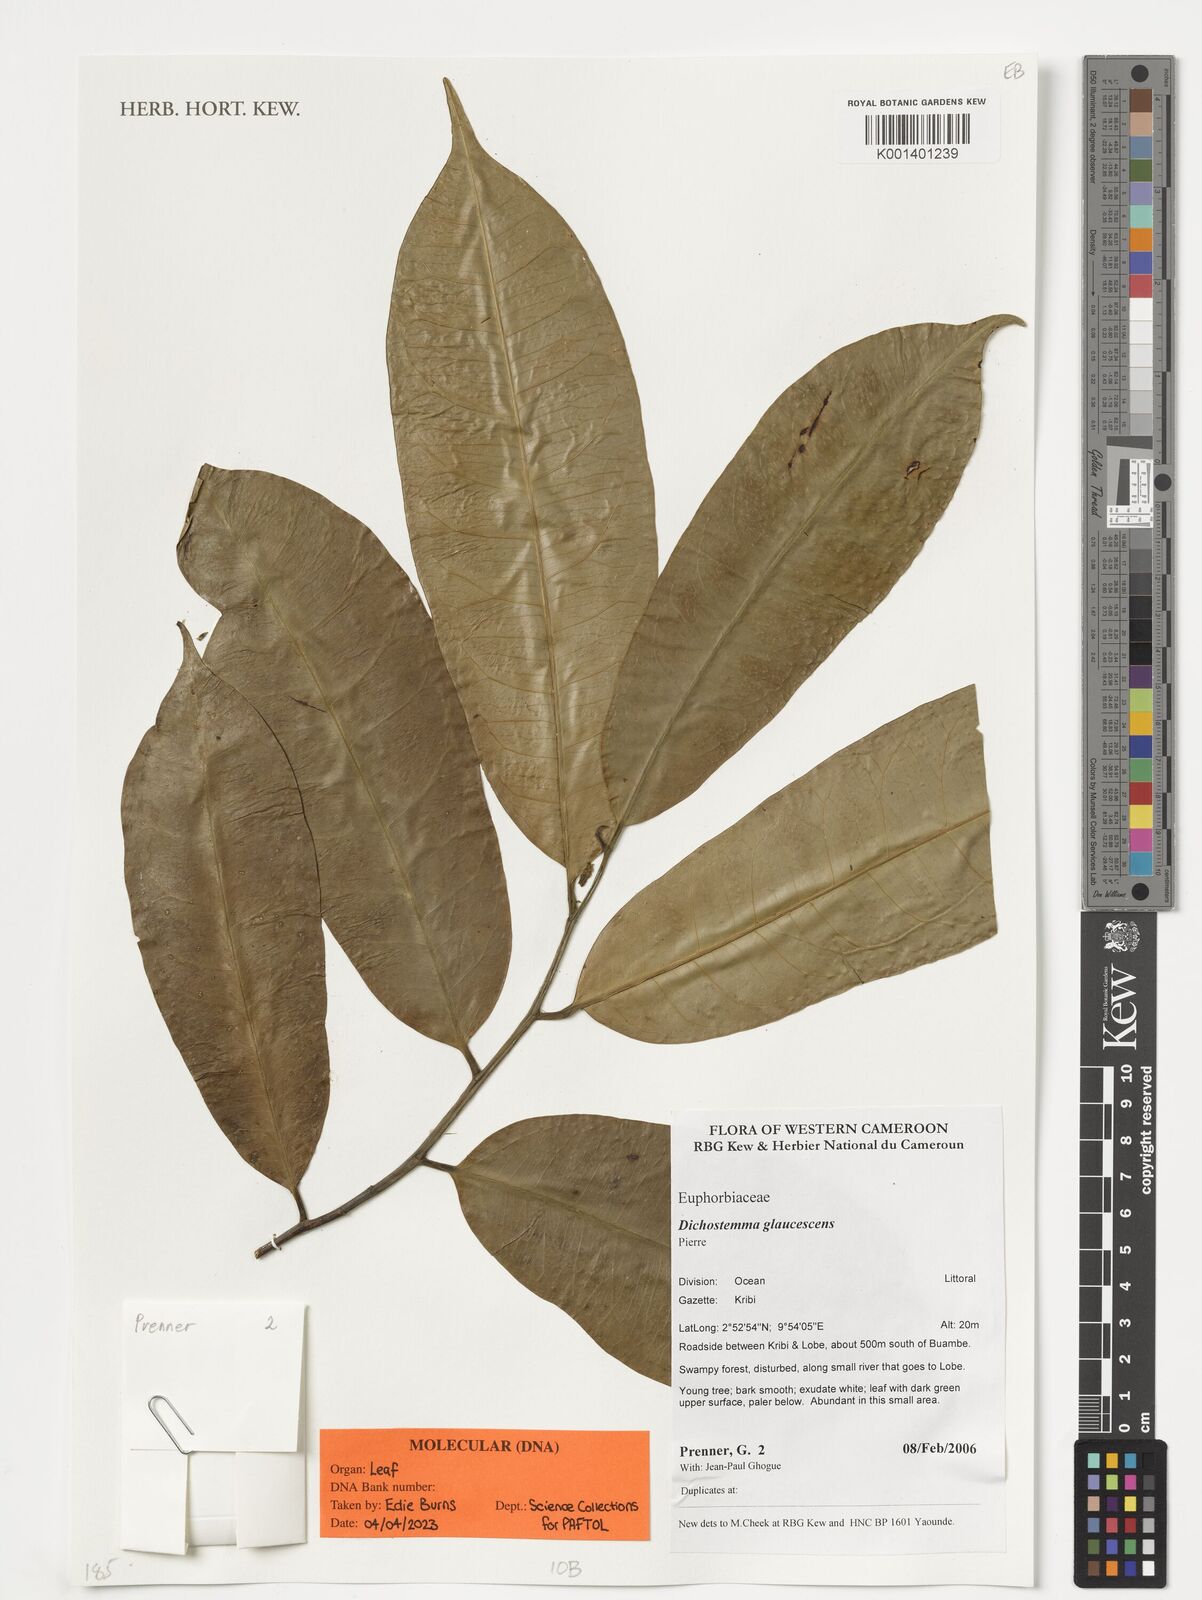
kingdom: Plantae
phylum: Tracheophyta
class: Magnoliopsida
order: Malpighiales
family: Euphorbiaceae
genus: Dichostemma
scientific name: Dichostemma glaucescens
